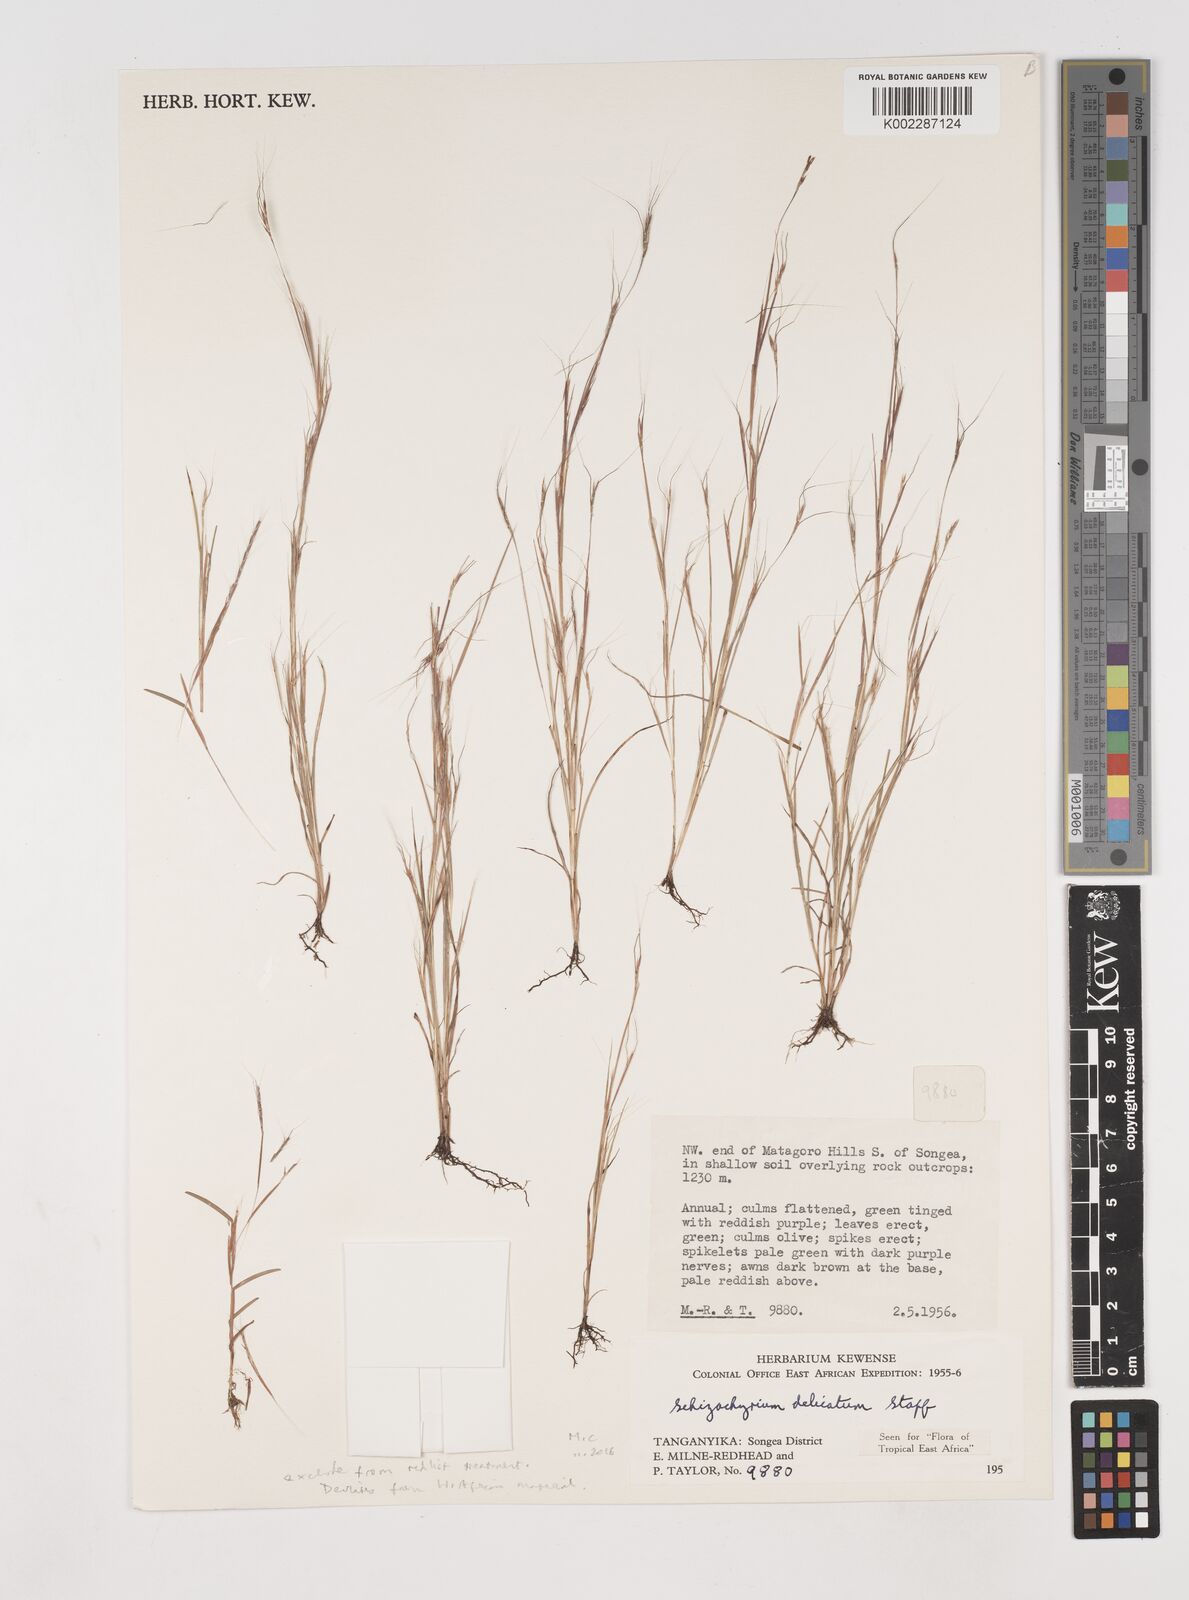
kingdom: Plantae
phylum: Tracheophyta
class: Liliopsida
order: Poales
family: Poaceae
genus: Schizachyrium
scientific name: Schizachyrium delicatum
